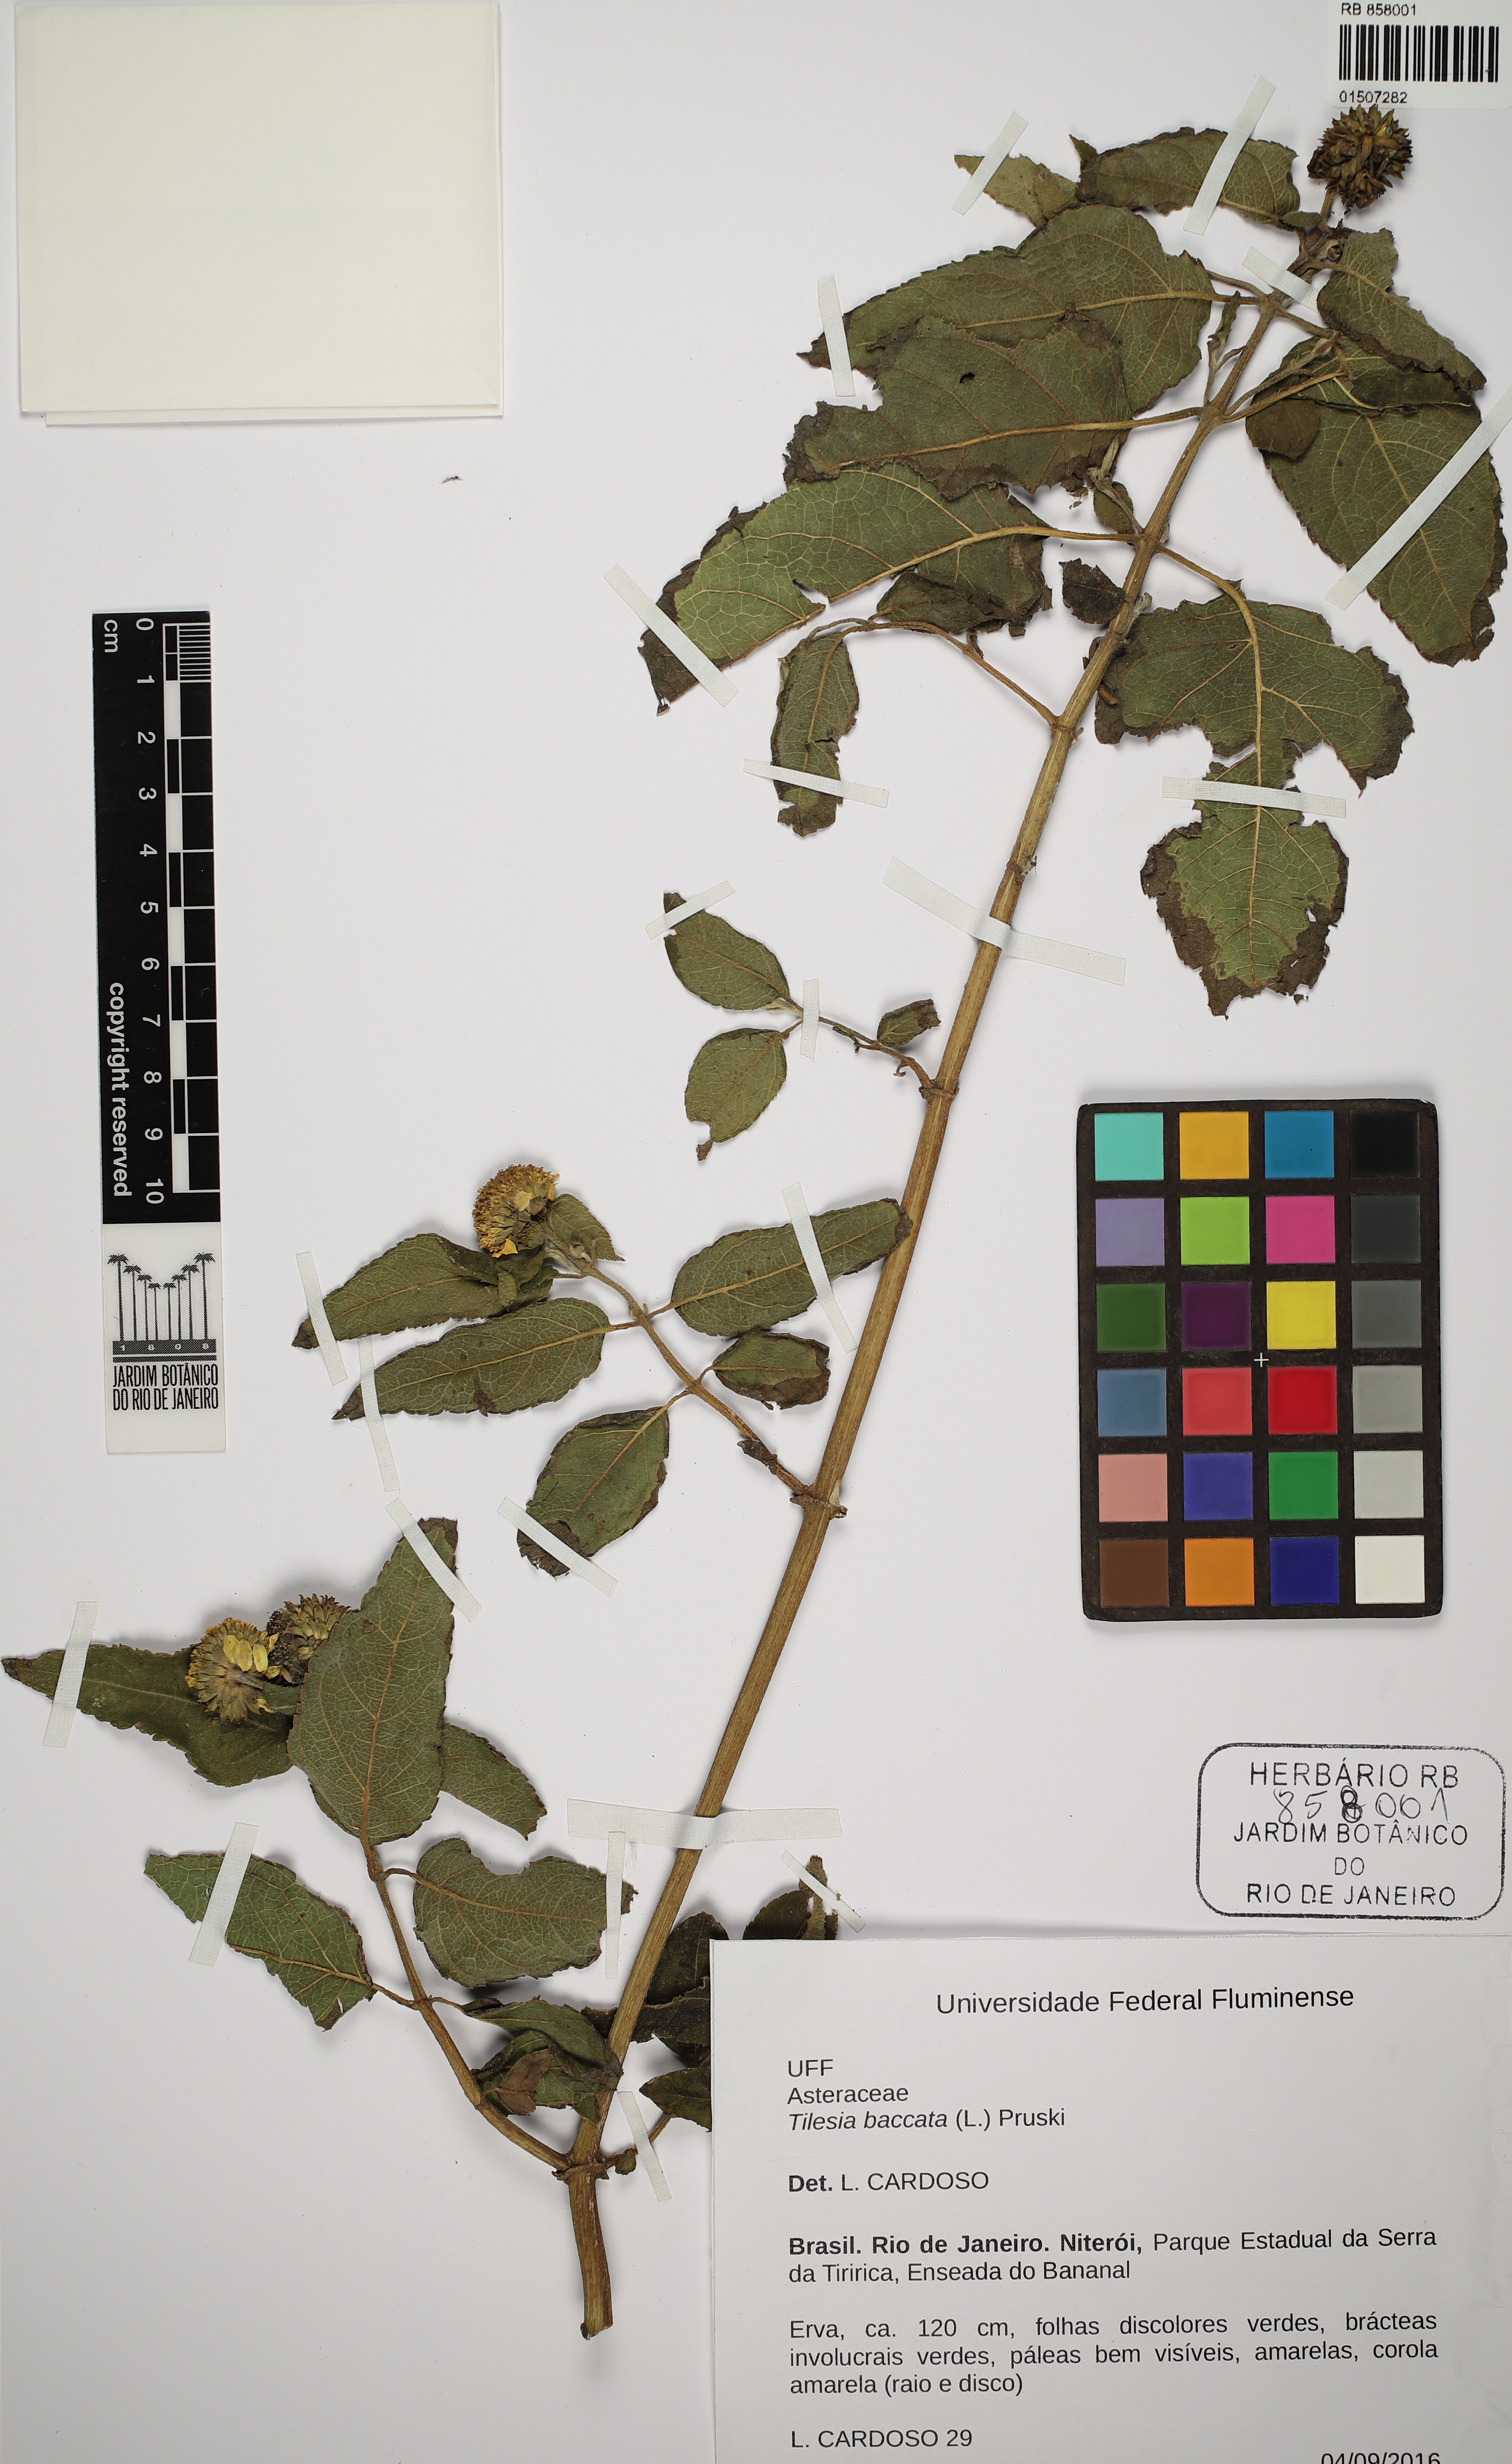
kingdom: Plantae
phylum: Tracheophyta
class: Magnoliopsida
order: Asterales
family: Asteraceae
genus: Tilesia
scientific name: Tilesia baccata
